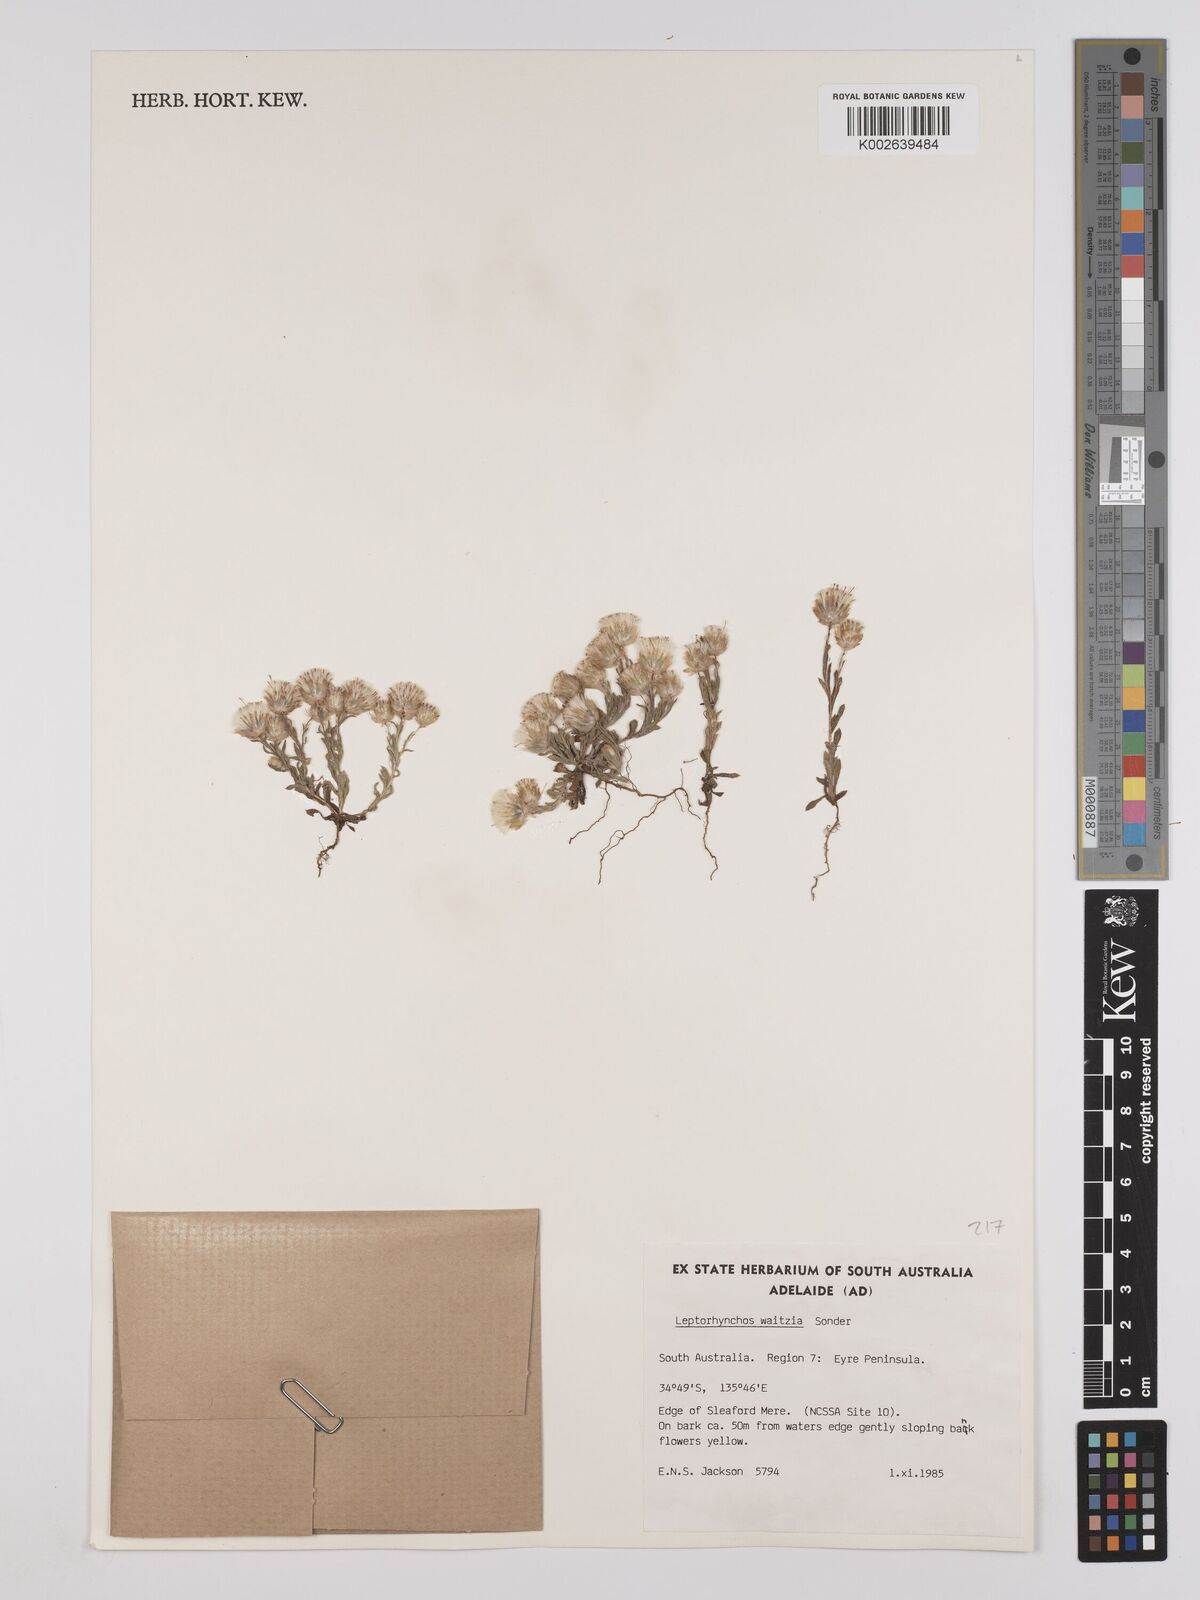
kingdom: Plantae
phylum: Tracheophyta
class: Magnoliopsida
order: Asterales
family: Asteraceae
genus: Leptorhynchos
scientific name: Leptorhynchos waitzia
